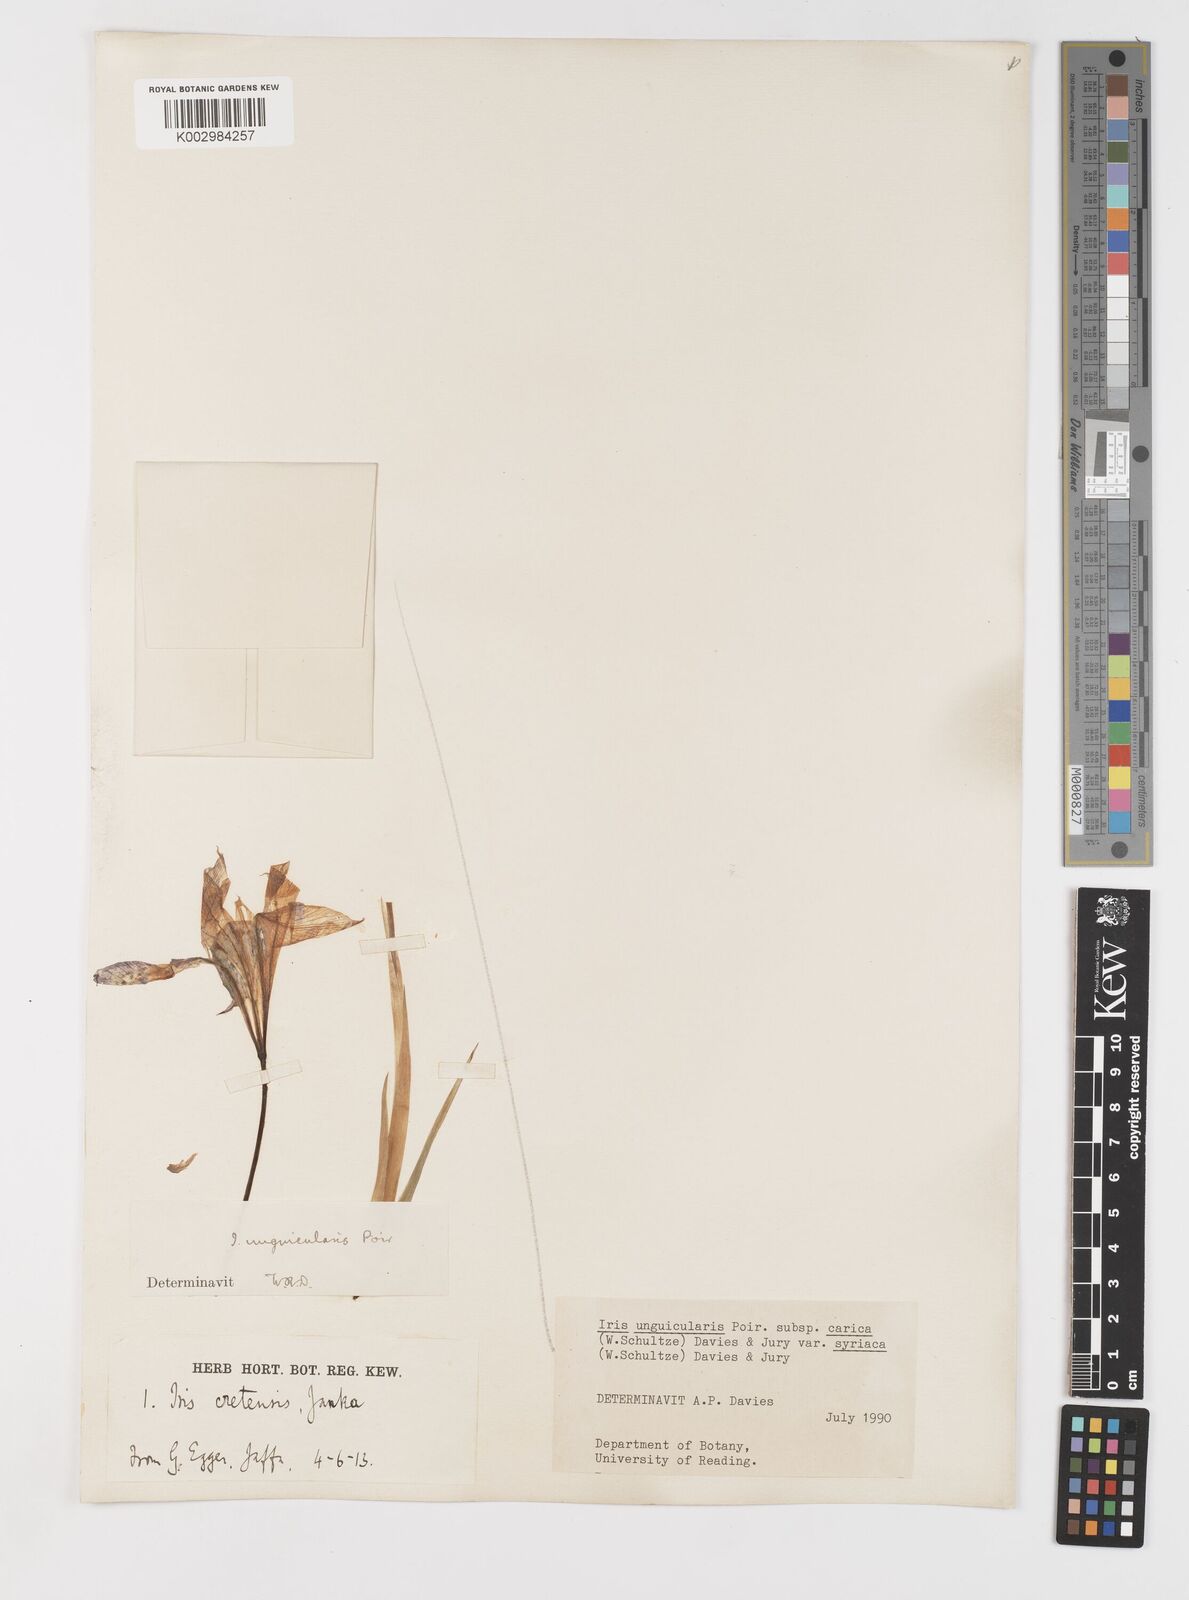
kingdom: Plantae
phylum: Tracheophyta
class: Liliopsida
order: Asparagales
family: Iridaceae
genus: Iris
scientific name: Iris unguicularis
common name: Algerian iris
